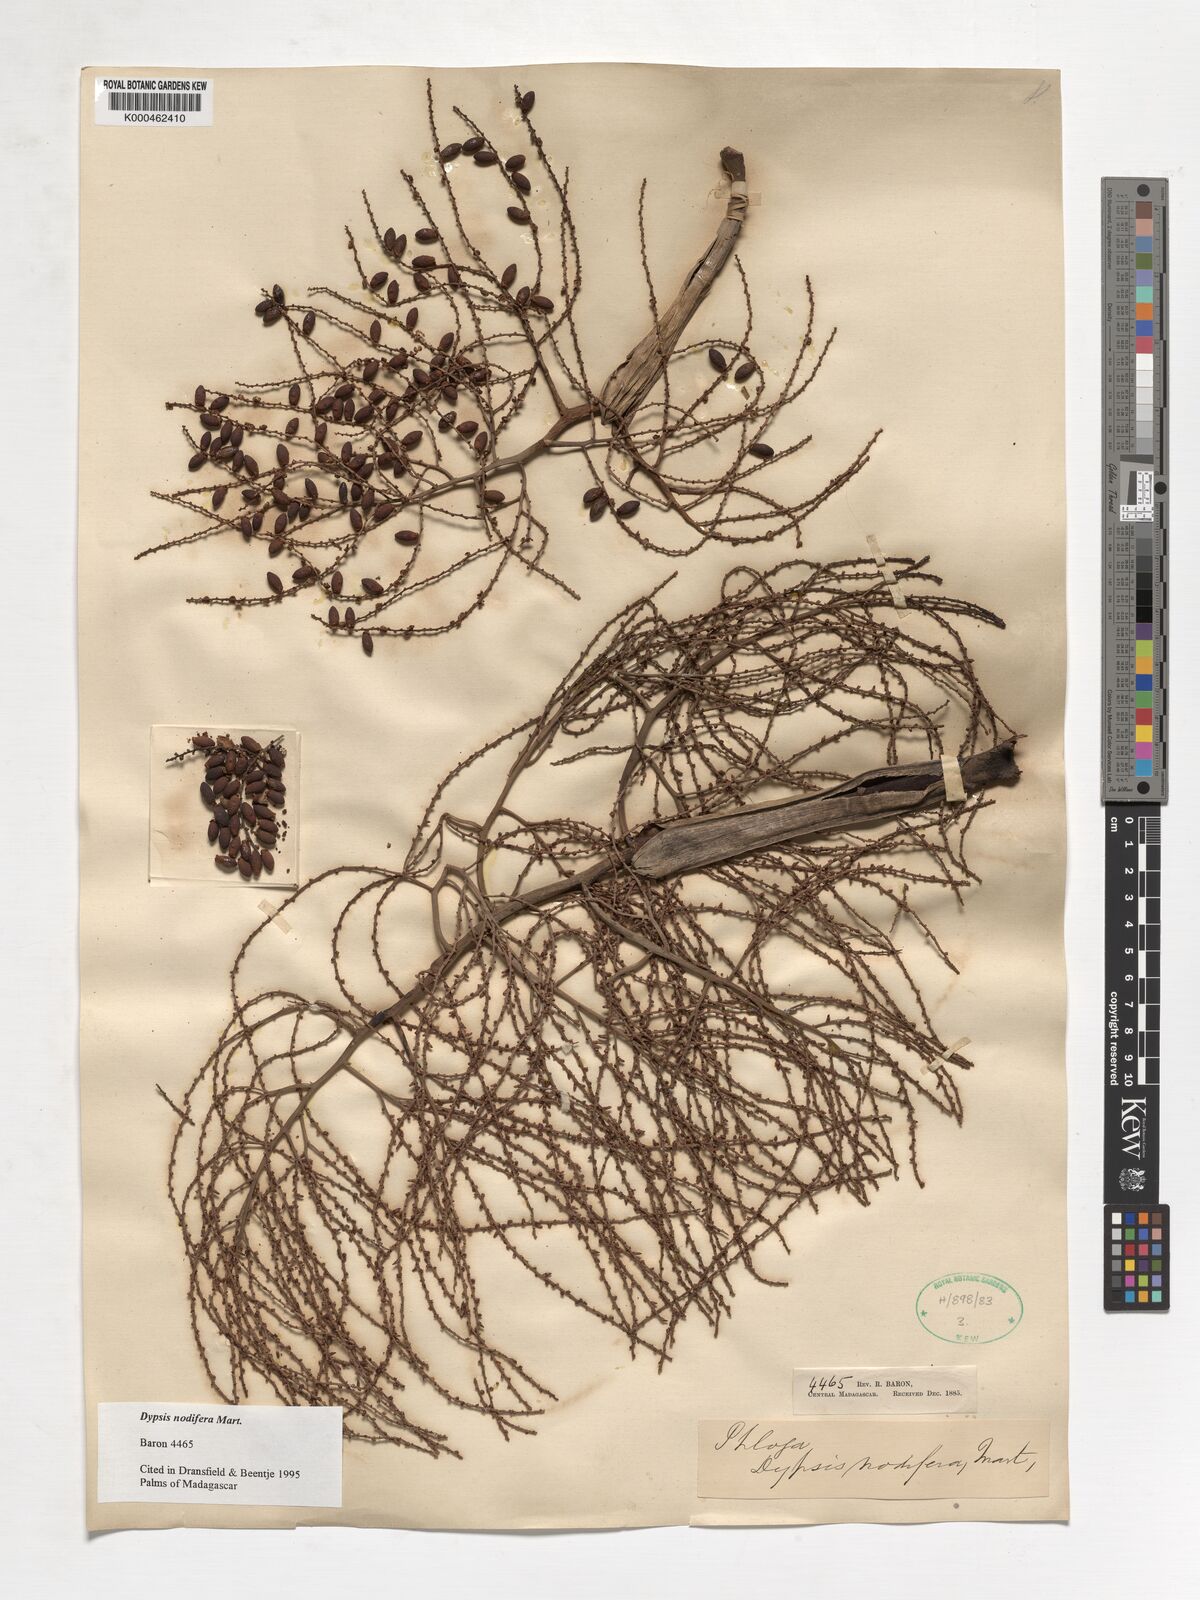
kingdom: Plantae
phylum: Tracheophyta
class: Liliopsida
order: Arecales
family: Arecaceae
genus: Dypsis
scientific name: Dypsis nodifera
